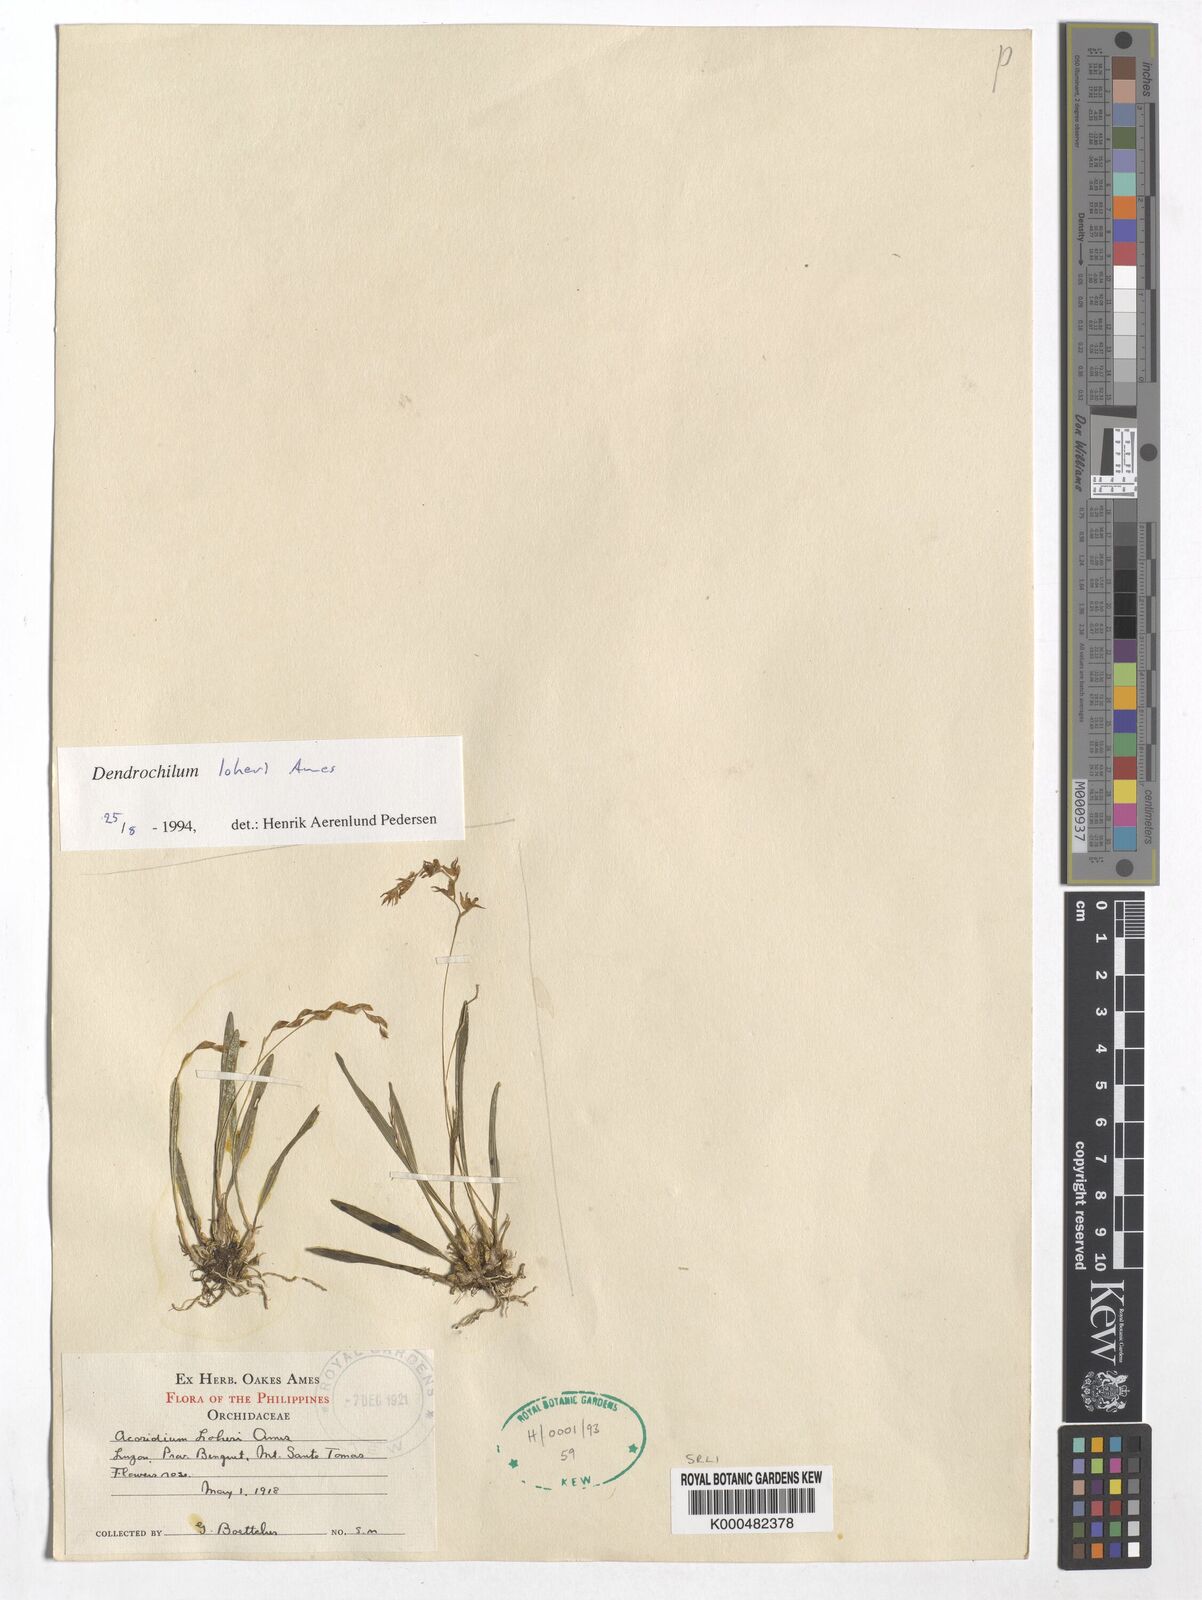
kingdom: Plantae
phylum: Tracheophyta
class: Liliopsida
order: Asparagales
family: Orchidaceae
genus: Coelogyne
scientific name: Coelogyne augustii
